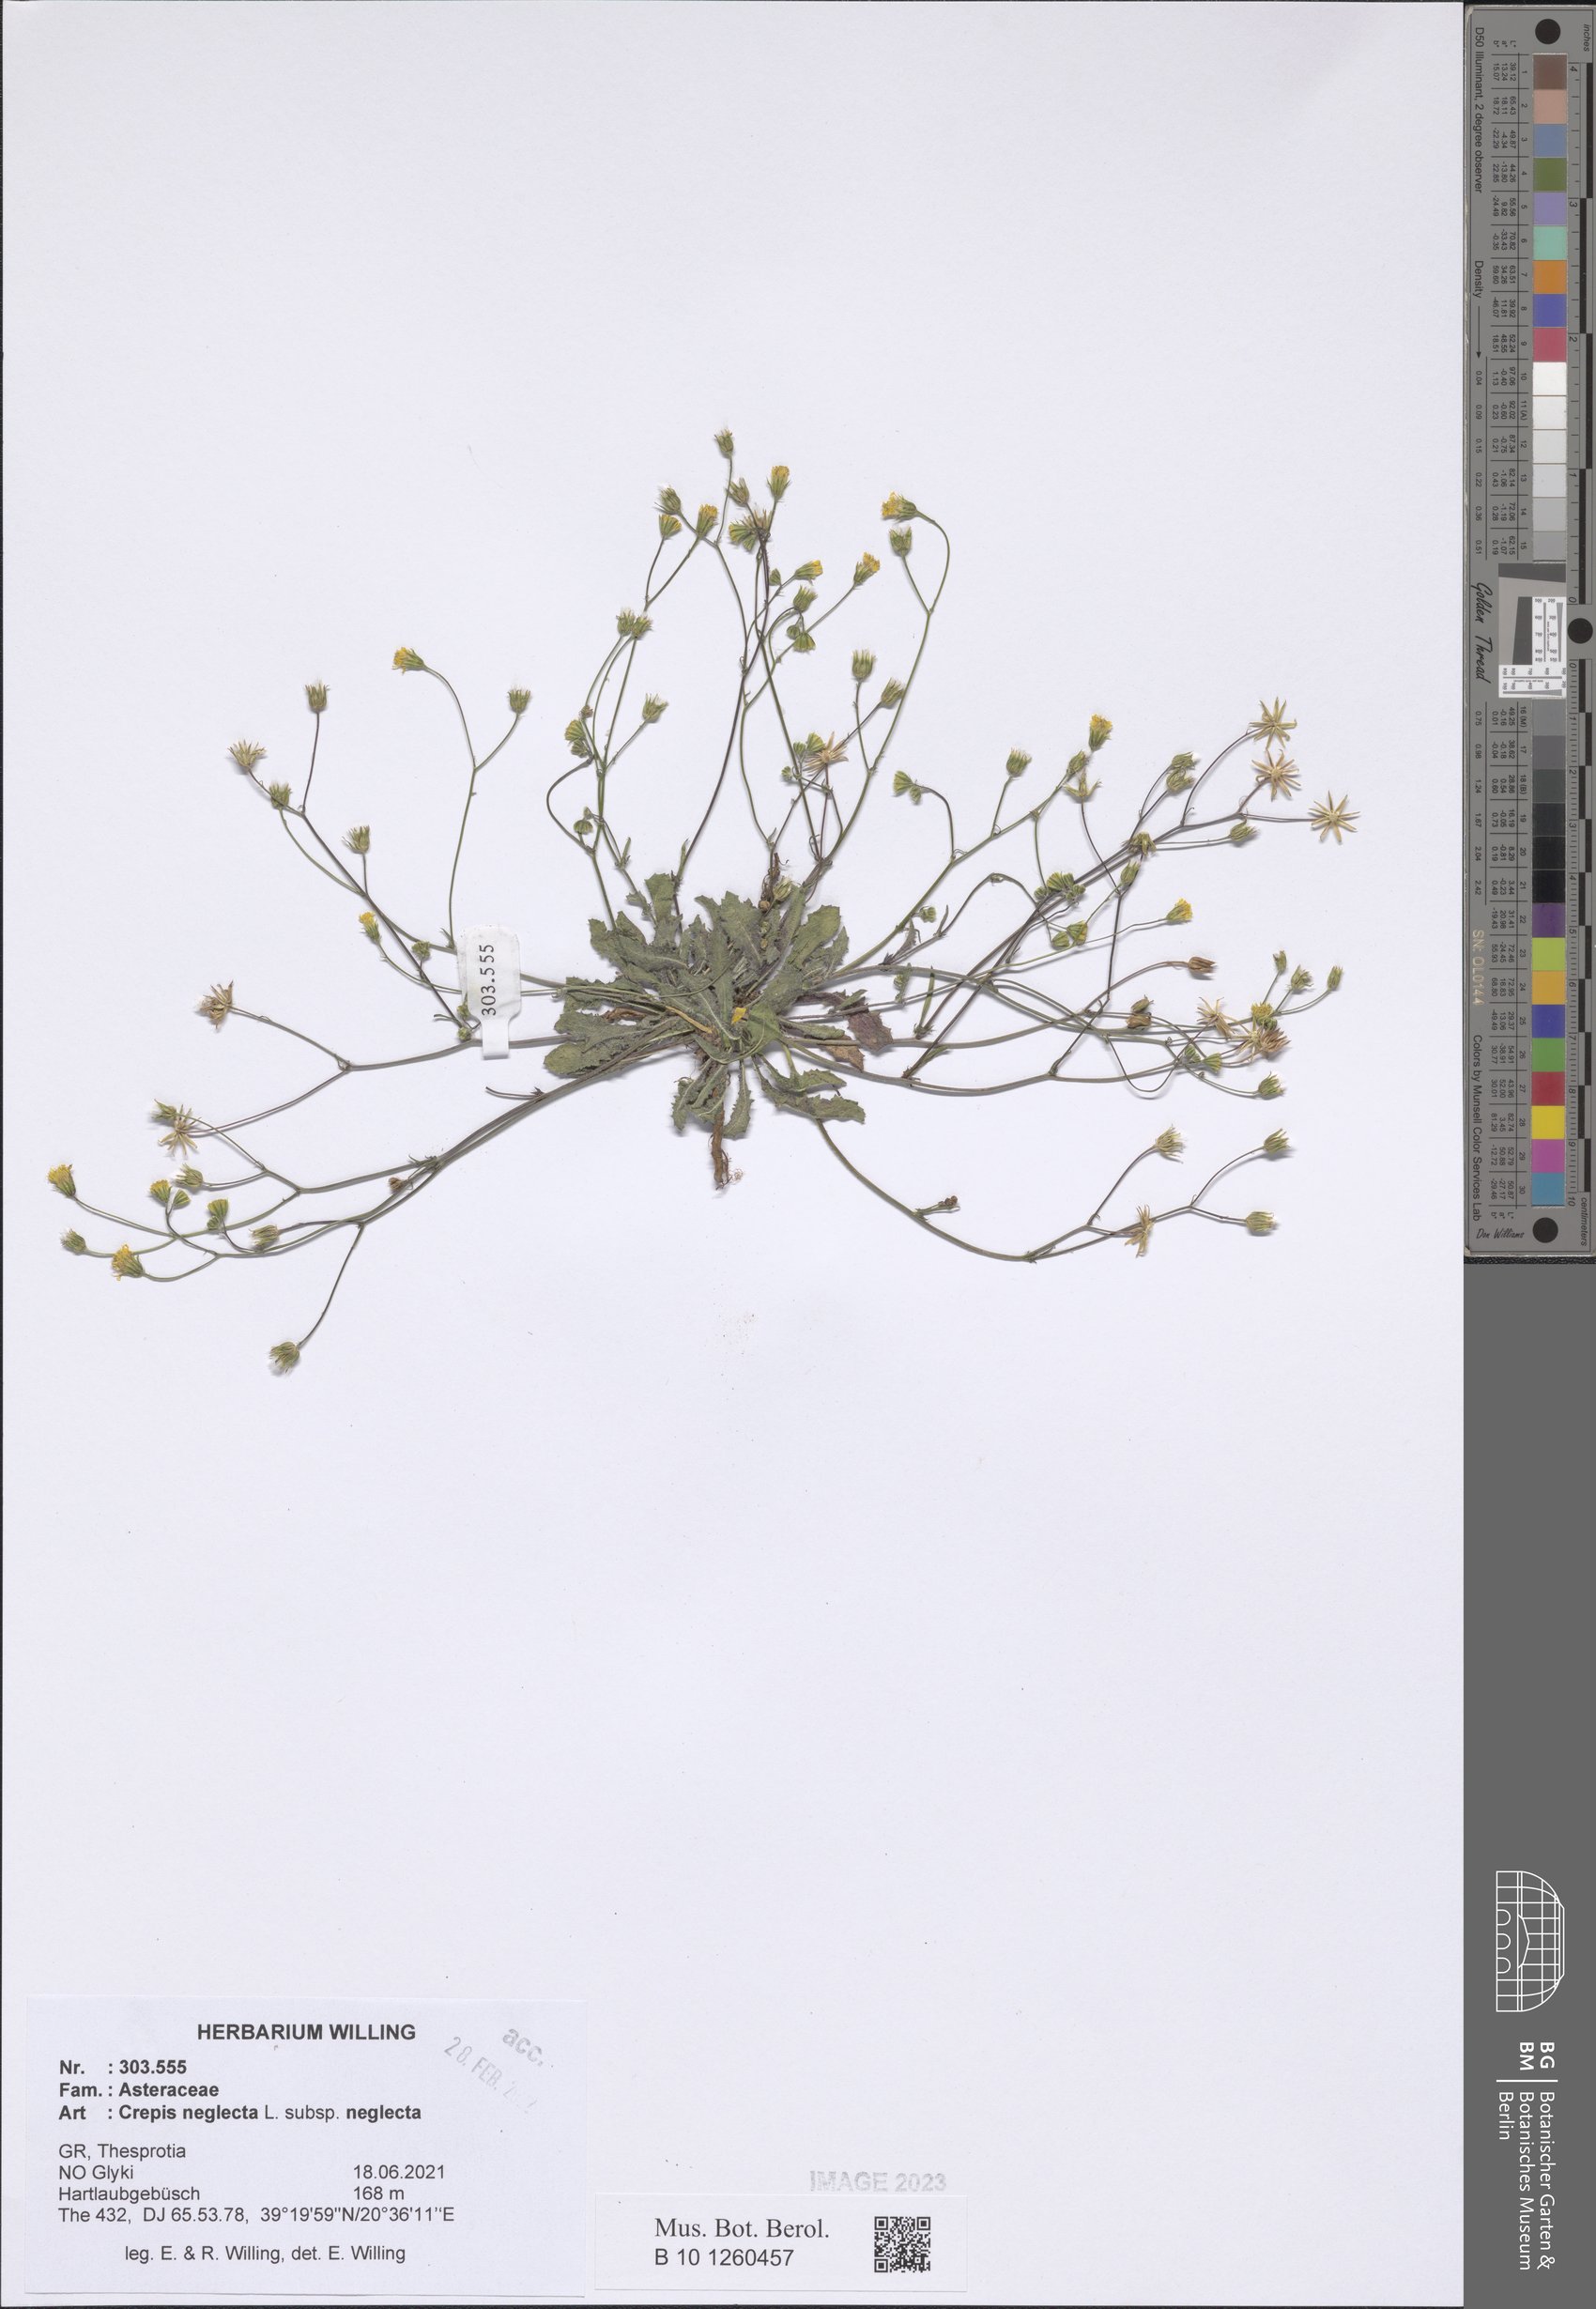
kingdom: Plantae
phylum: Tracheophyta
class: Magnoliopsida
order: Asterales
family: Asteraceae
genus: Crepis
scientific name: Crepis neglecta
